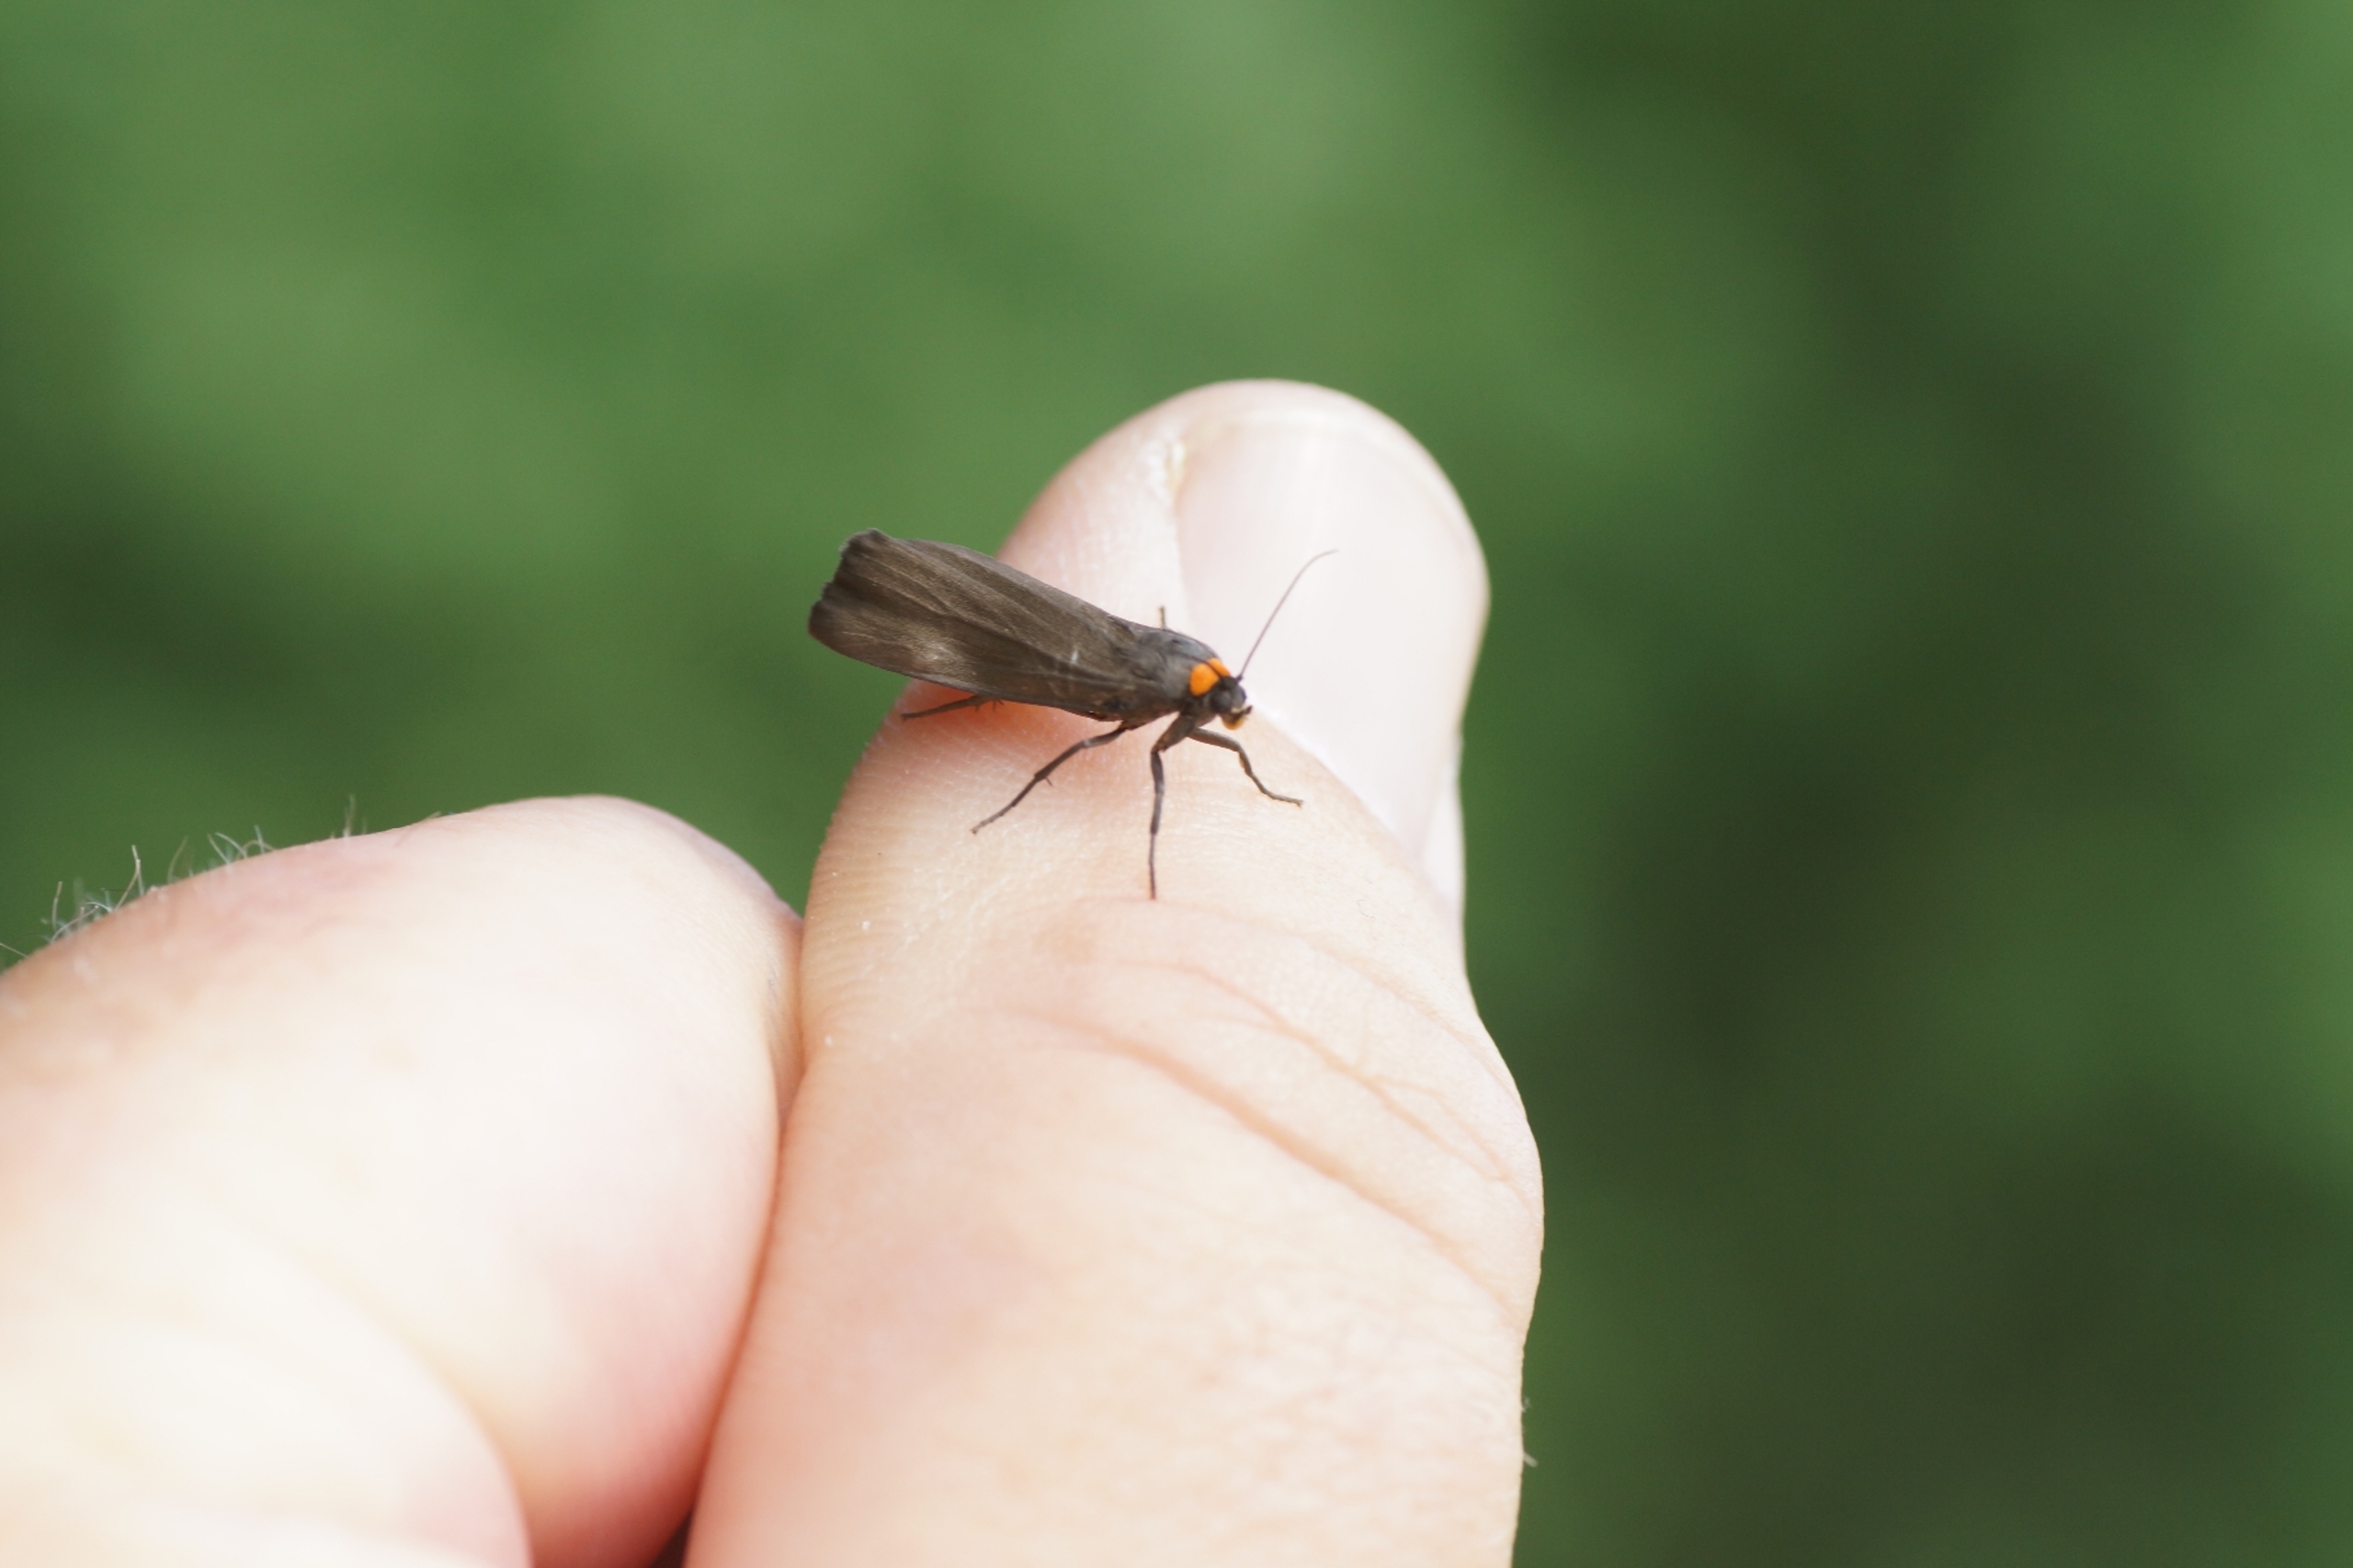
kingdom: Animalia
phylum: Arthropoda
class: Insecta
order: Lepidoptera
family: Erebidae
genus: Atolmis
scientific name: Atolmis rubricollis
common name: Blodnakke
